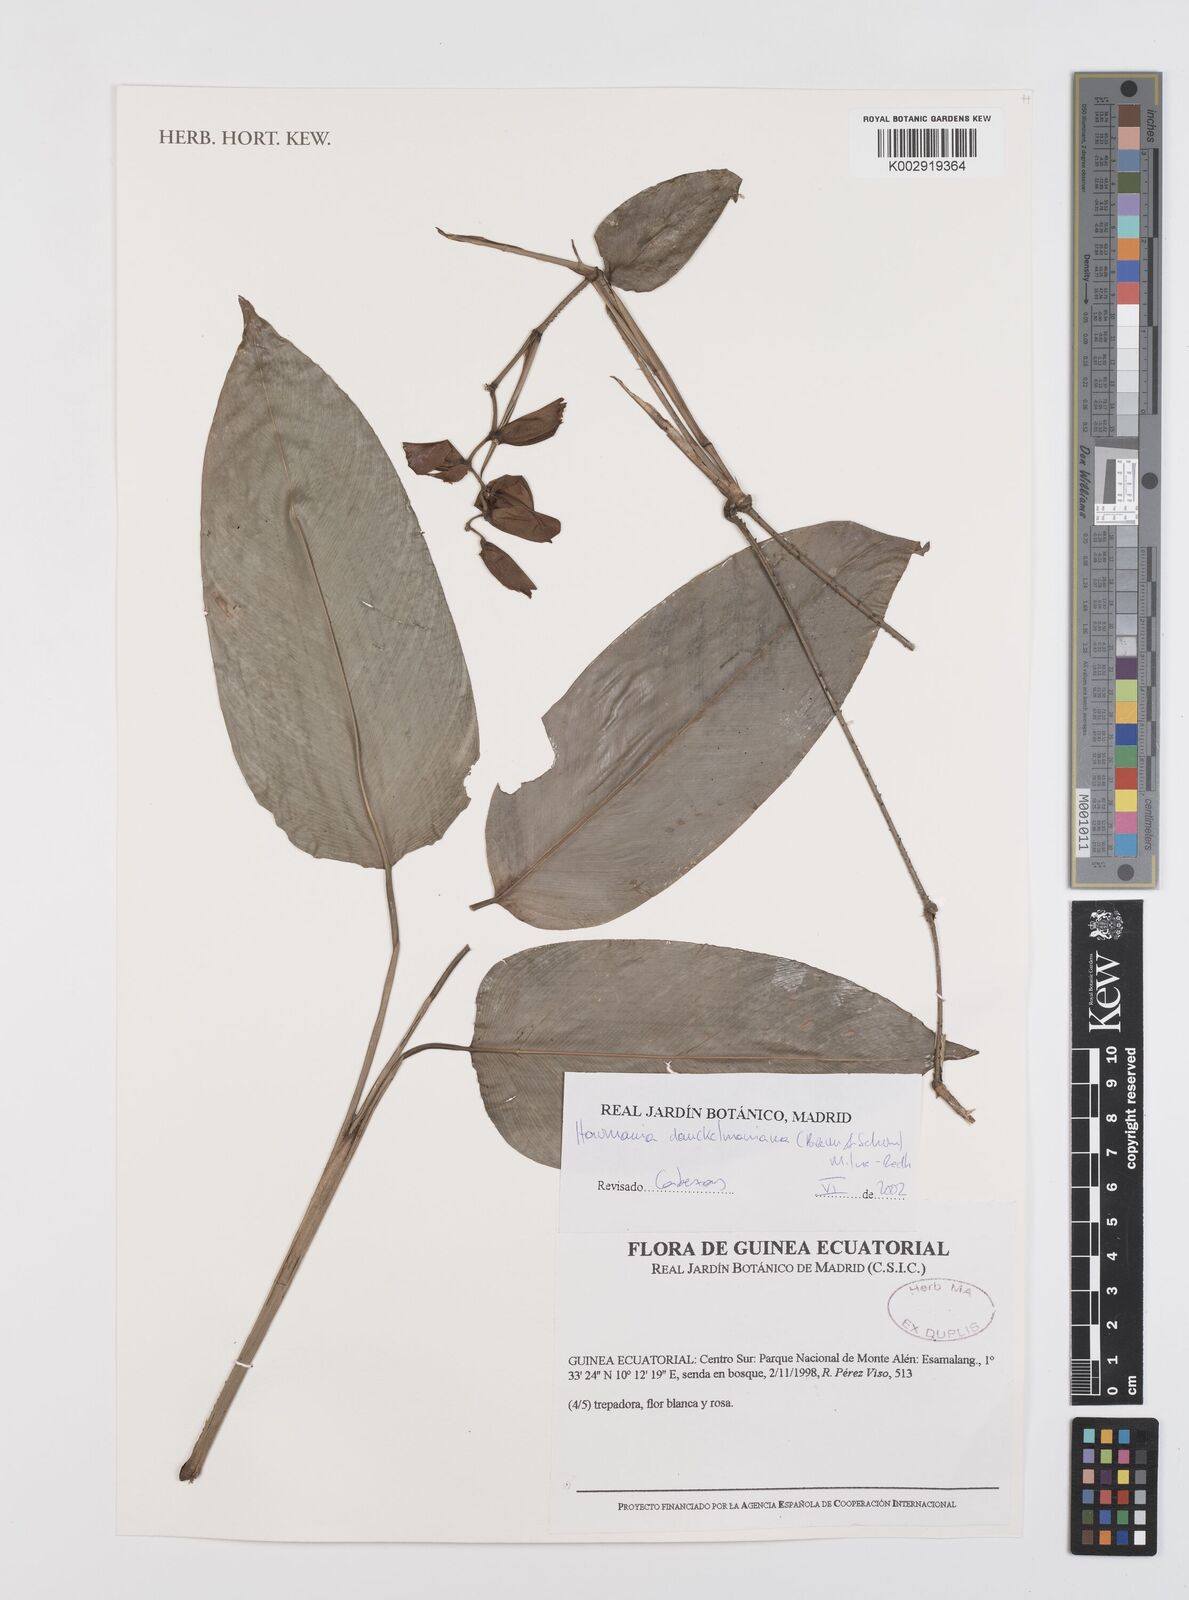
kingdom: Plantae
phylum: Tracheophyta
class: Liliopsida
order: Zingiberales
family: Marantaceae
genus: Haumania
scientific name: Haumania danckelmaniana
